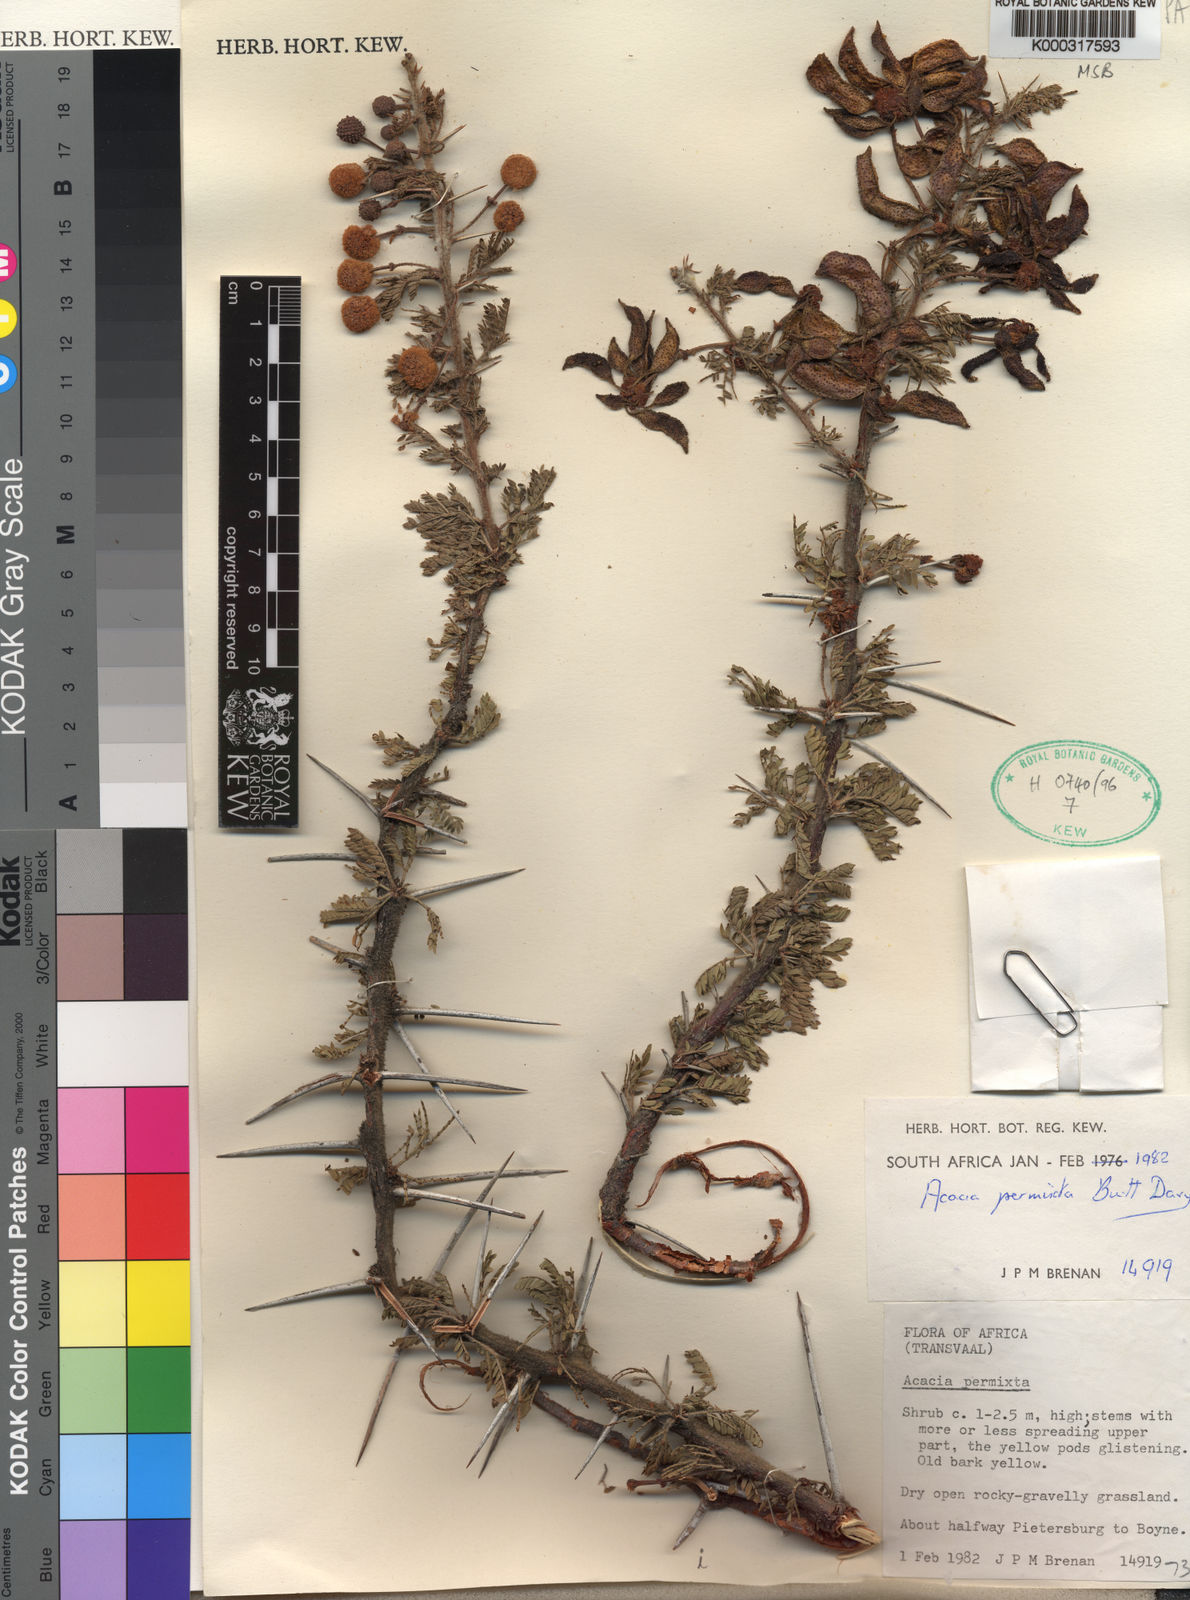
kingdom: Plantae
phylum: Tracheophyta
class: Magnoliopsida
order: Fabales
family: Fabaceae
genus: Vachellia
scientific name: Vachellia permixta
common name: Hairy acacia
